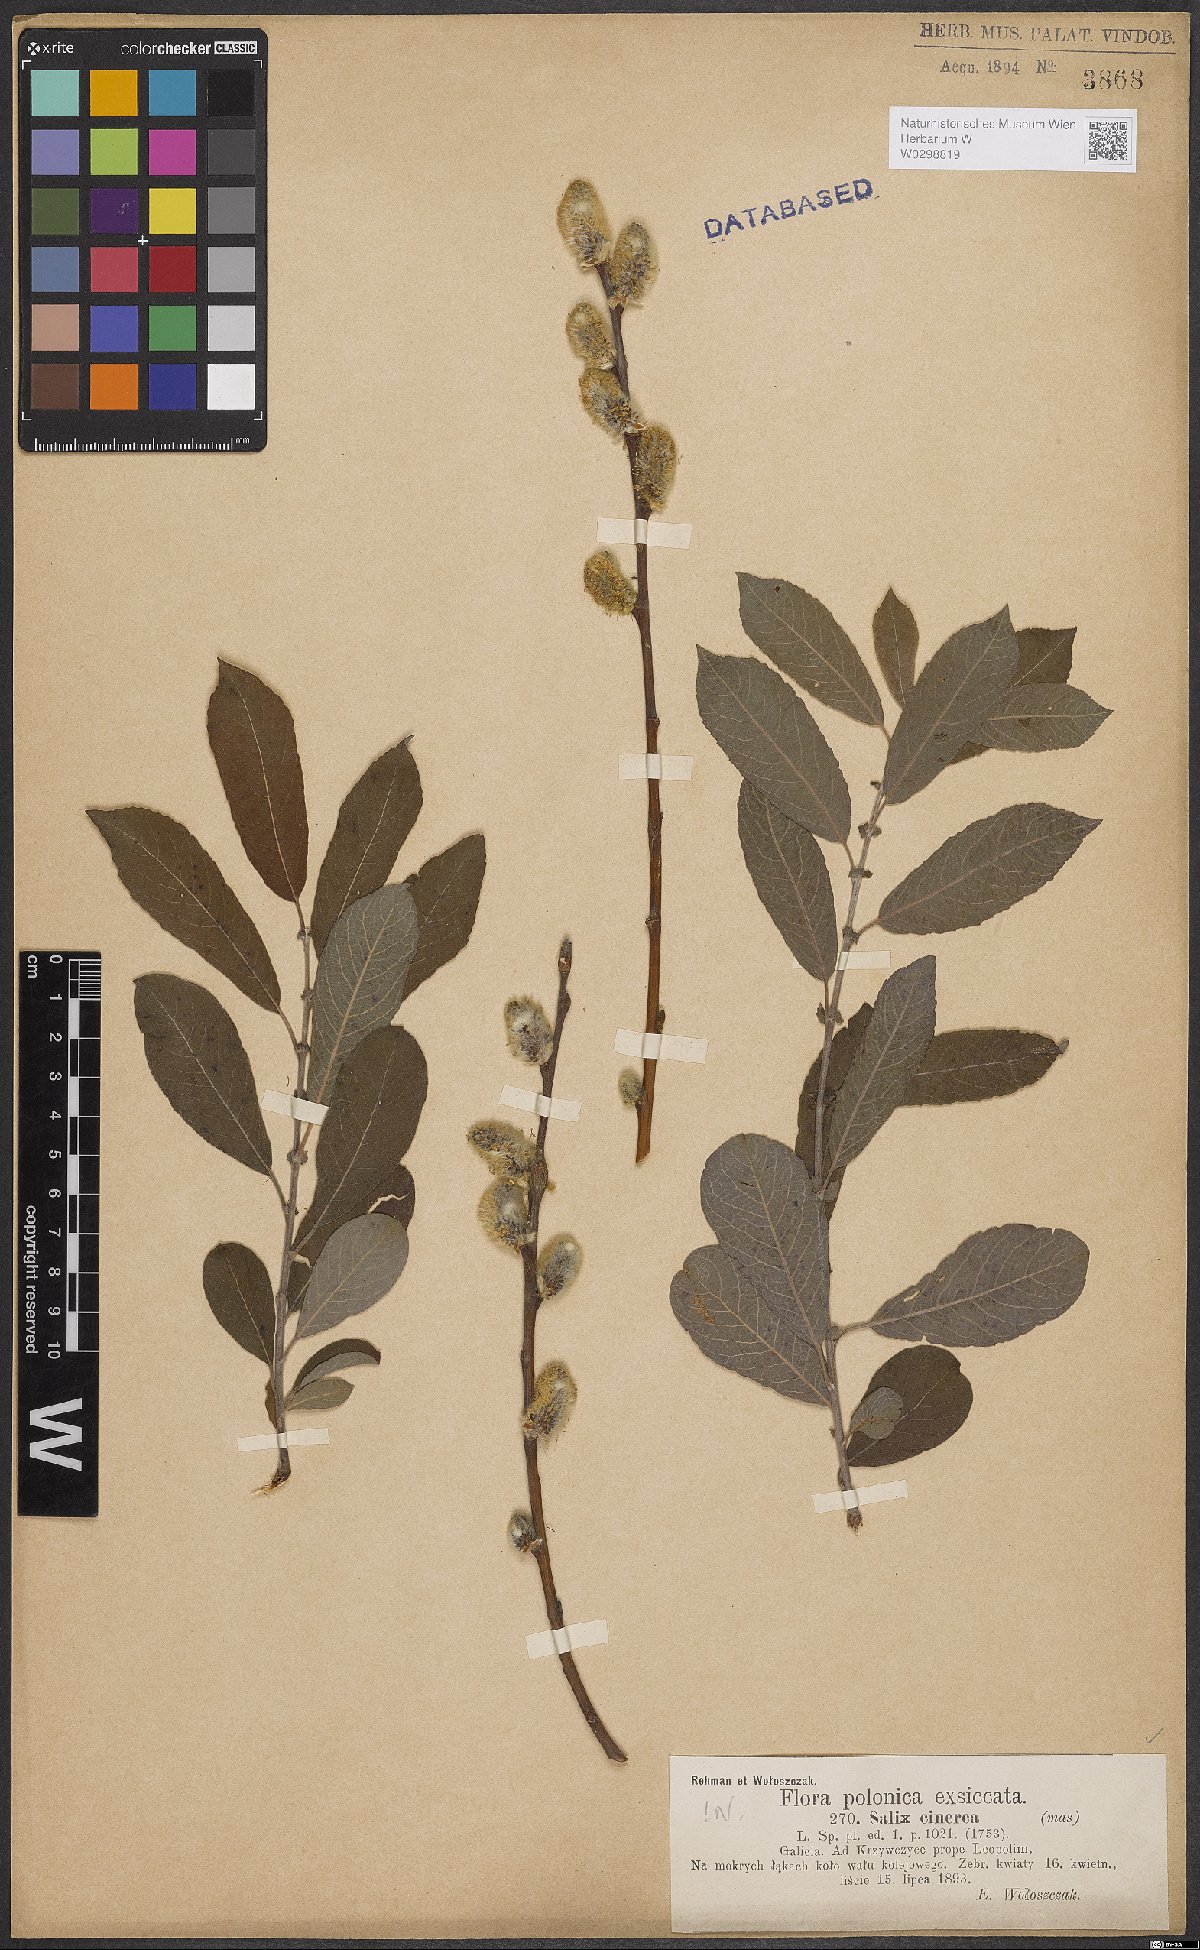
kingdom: Plantae
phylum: Tracheophyta
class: Magnoliopsida
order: Malpighiales
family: Salicaceae
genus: Salix
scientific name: Salix cinerea
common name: Common sallow
